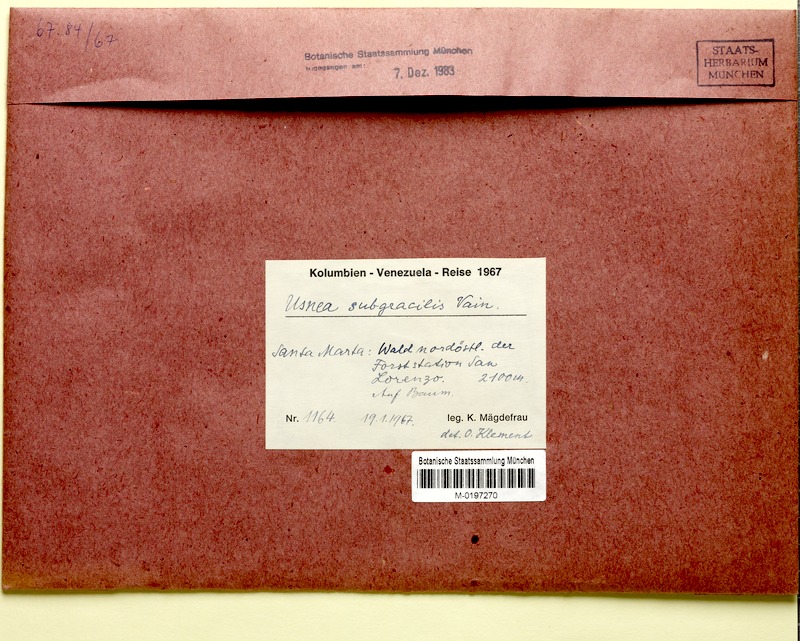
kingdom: Fungi
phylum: Ascomycota
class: Lecanoromycetes
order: Lecanorales
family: Parmeliaceae
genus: Usnea
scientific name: Usnea subgracilis
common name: Beard lichen
